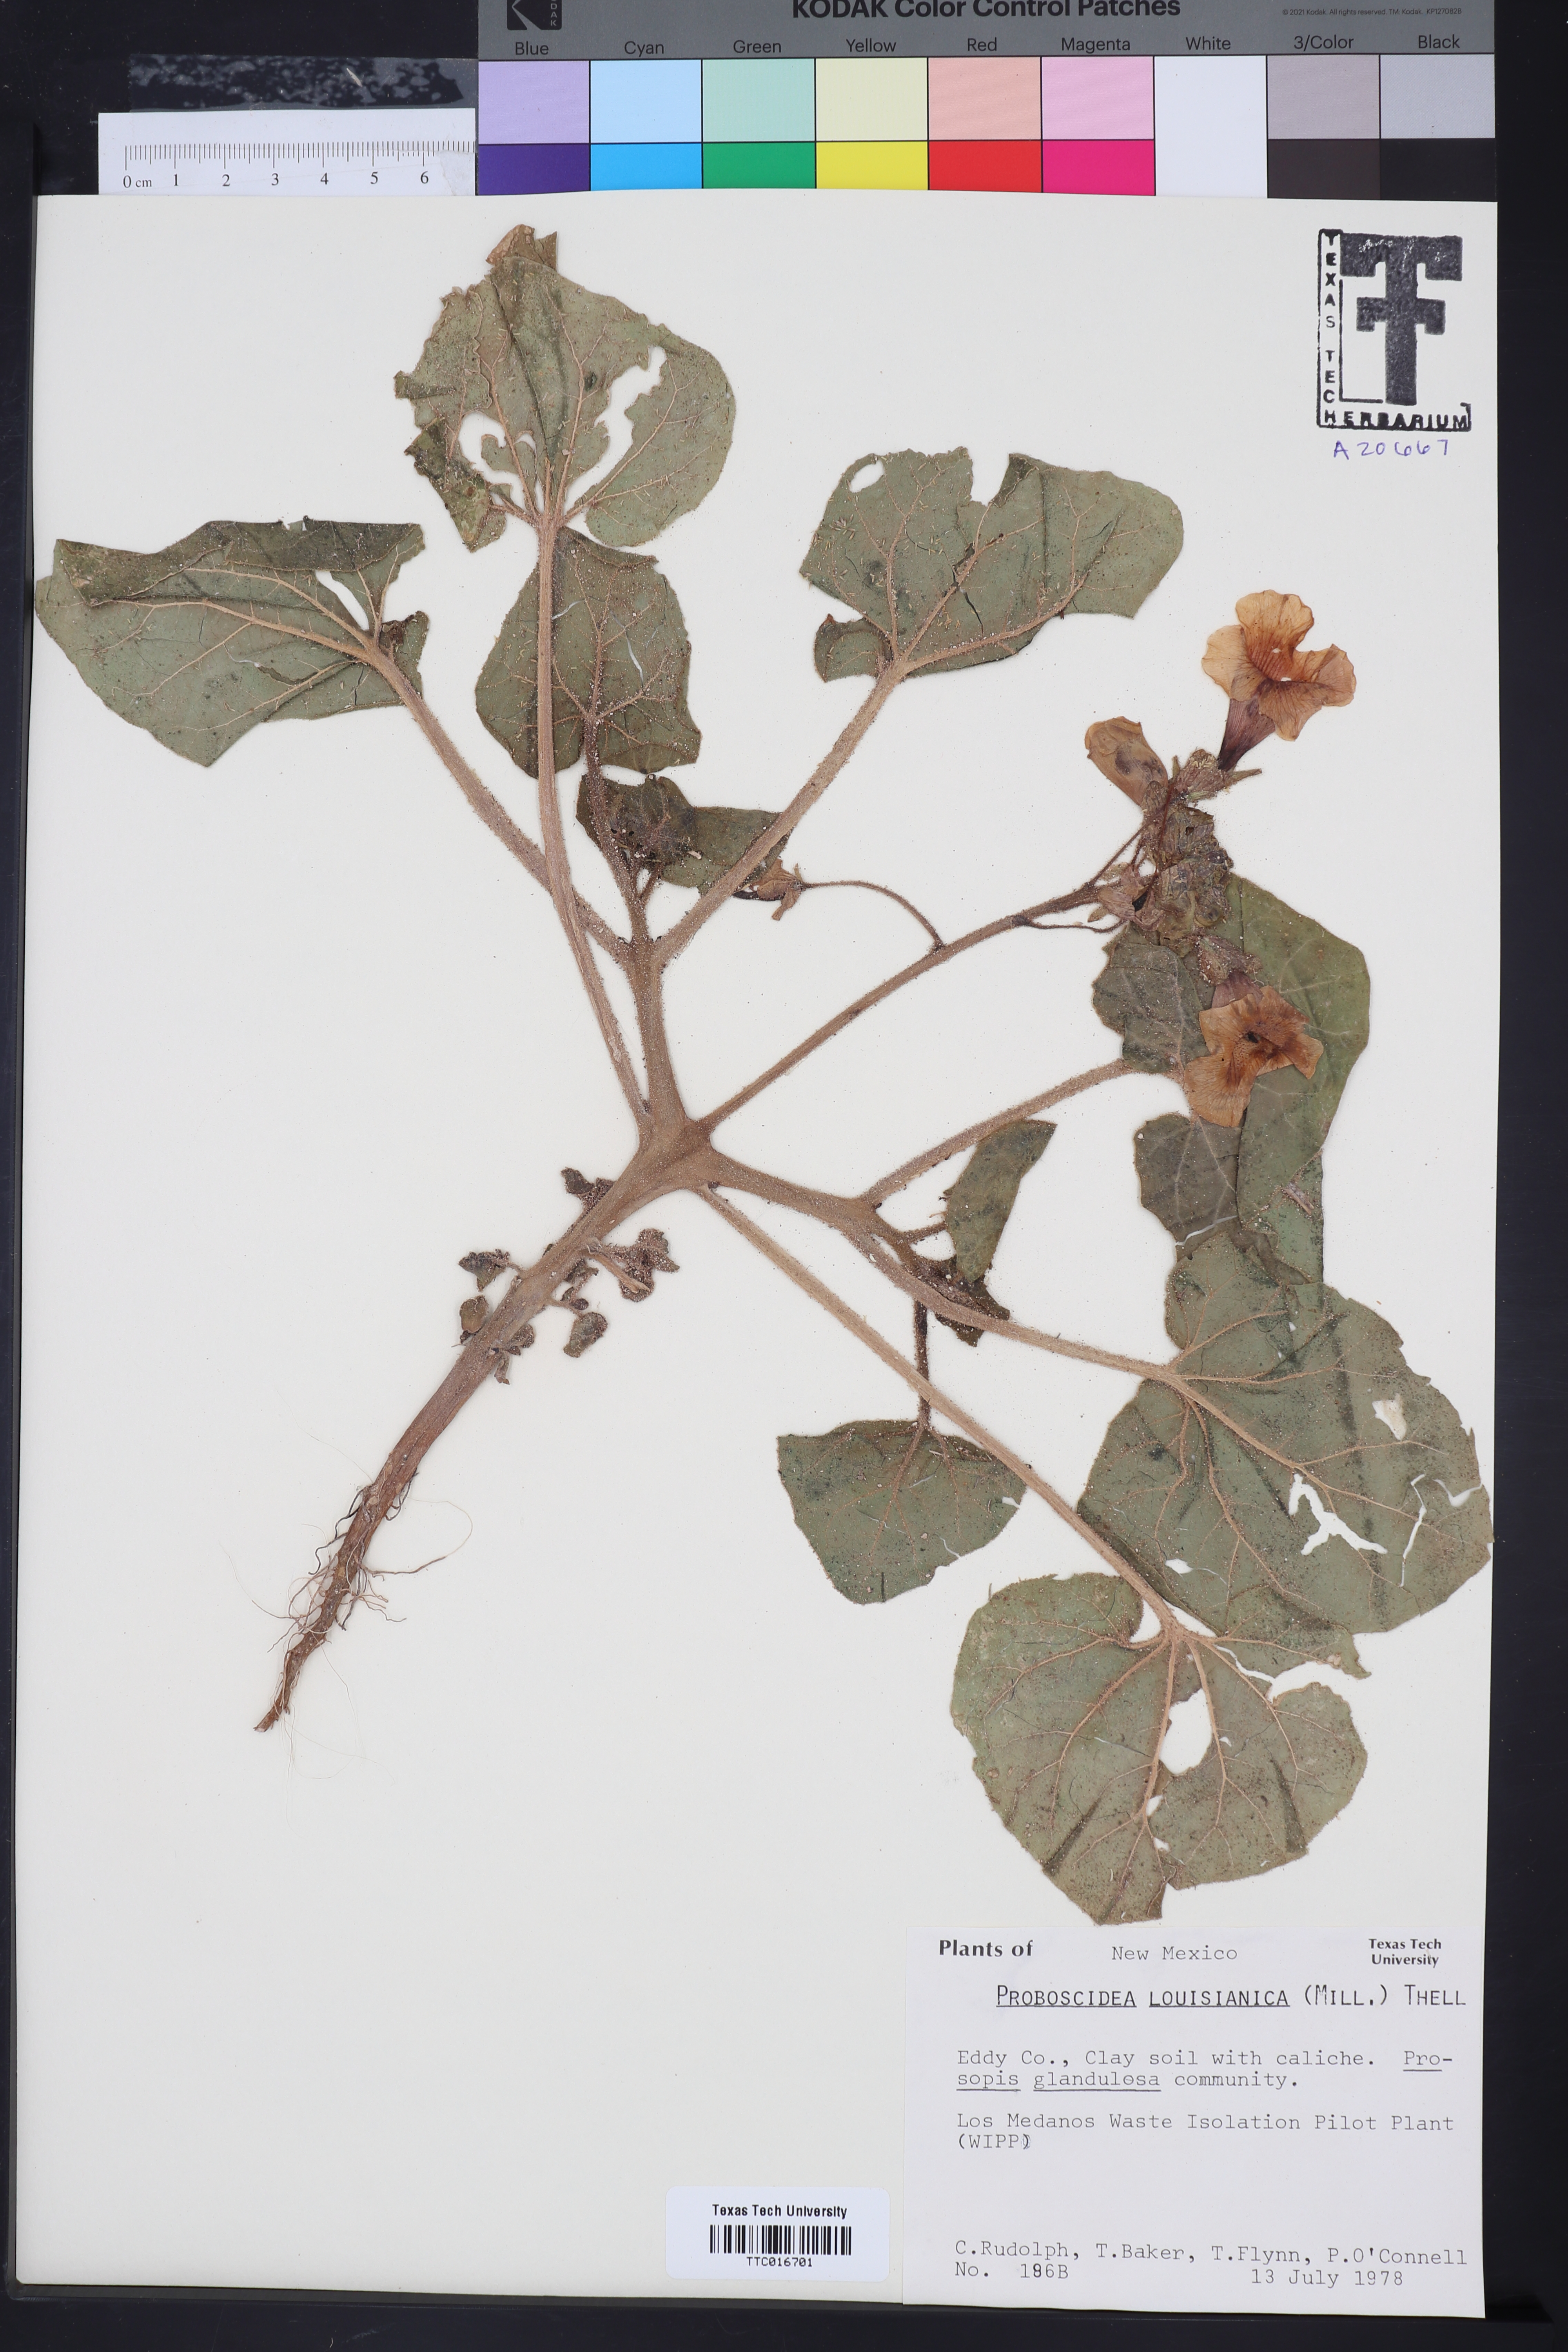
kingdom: Plantae
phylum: Tracheophyta
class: Magnoliopsida
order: Lamiales
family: Martyniaceae
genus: Proboscidea
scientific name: Proboscidea louisianica
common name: Elephant tusks
